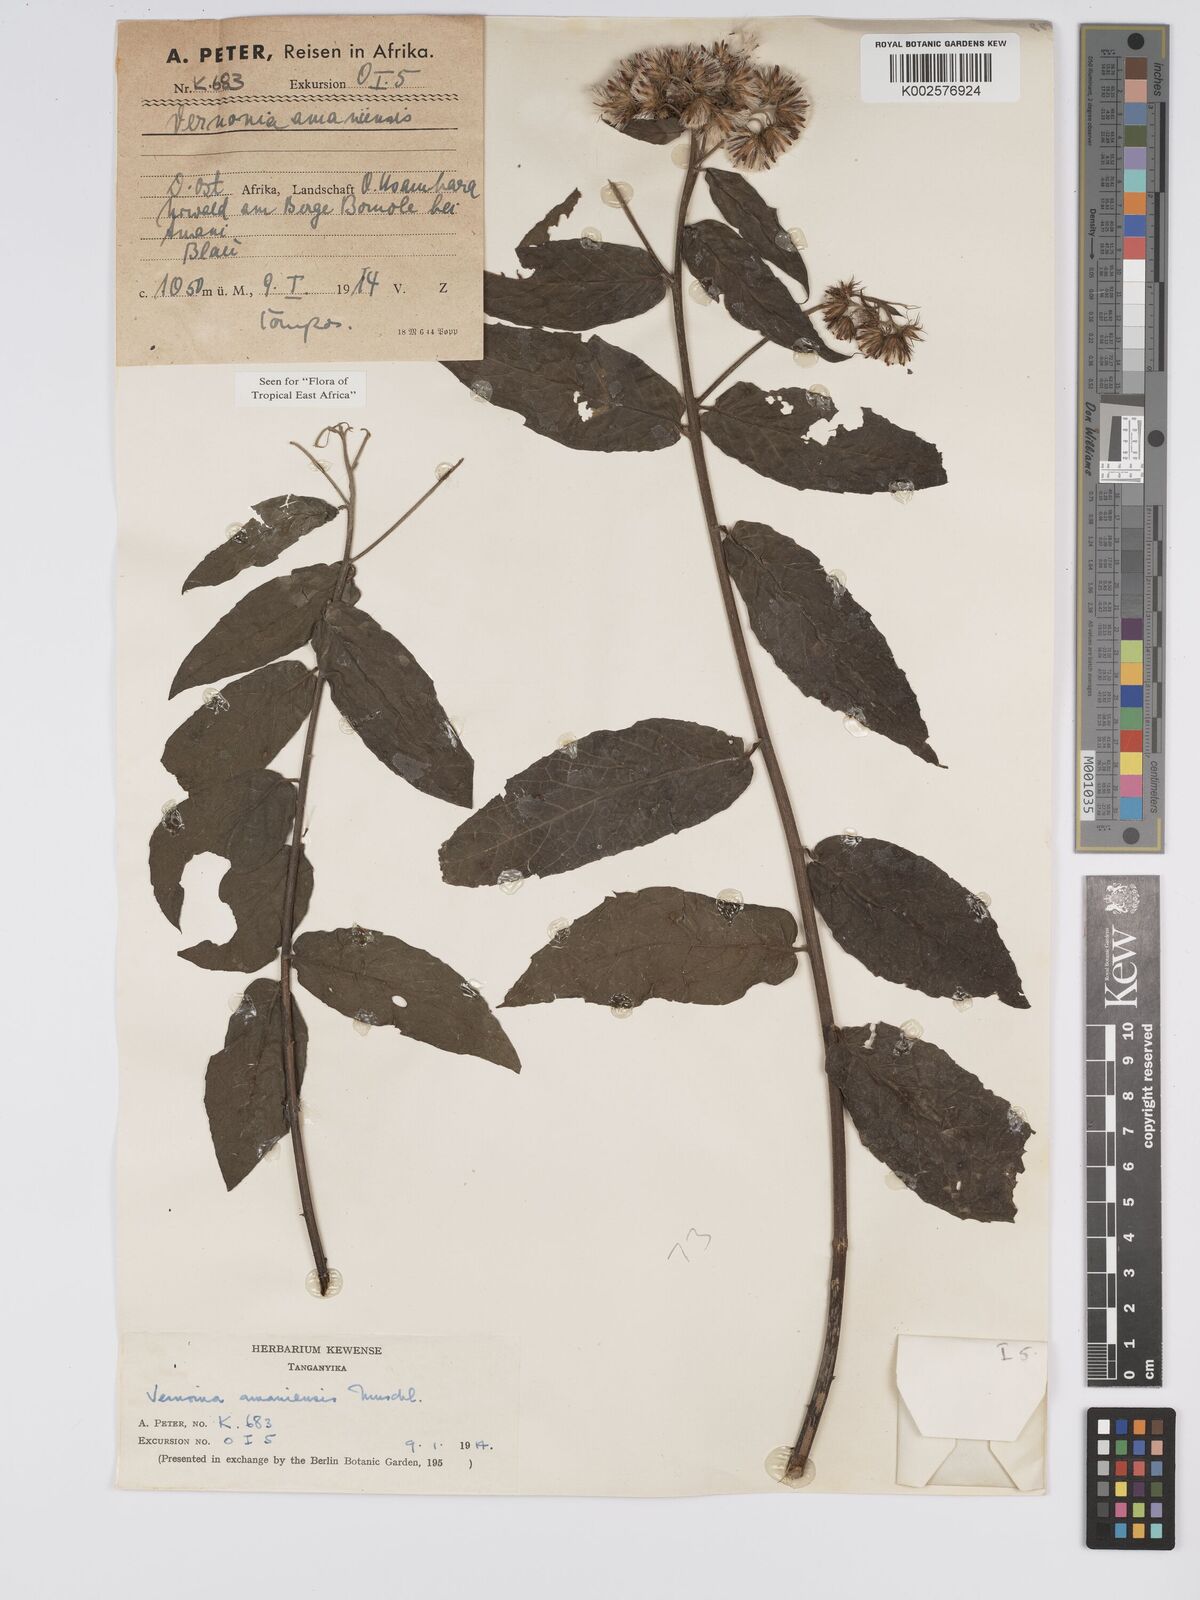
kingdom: Plantae
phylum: Tracheophyta
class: Magnoliopsida
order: Asterales
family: Asteraceae
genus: Jeffreycia
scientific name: Jeffreycia amaniensis
